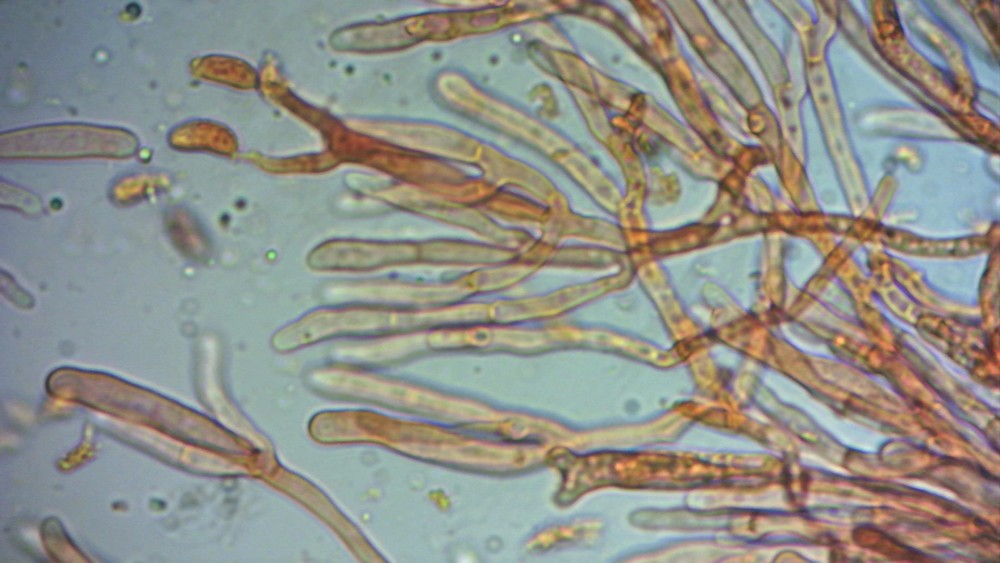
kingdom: Fungi
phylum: Basidiomycota
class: Dacrymycetes
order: Dacrymycetales
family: Dacrymycetaceae
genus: Dacrymyces
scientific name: Dacrymyces
